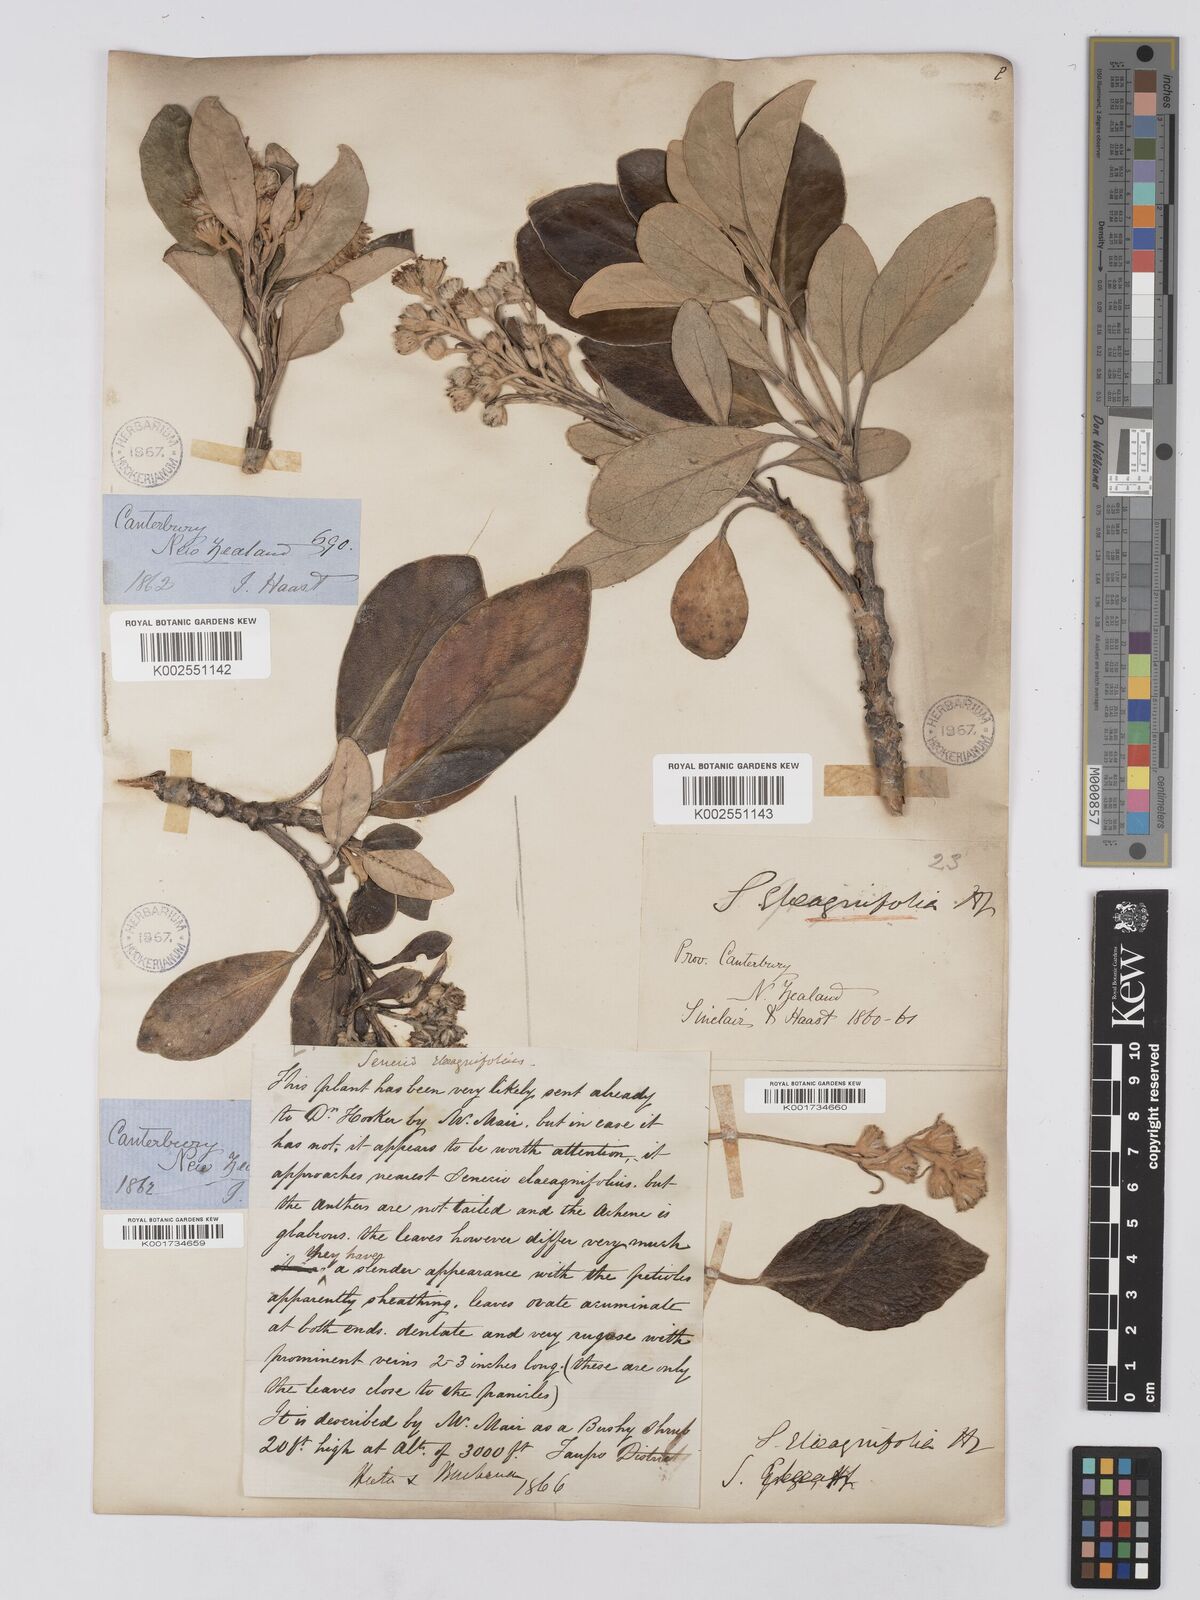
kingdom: Plantae
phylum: Tracheophyta
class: Magnoliopsida
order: Asterales
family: Asteraceae
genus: Brachyglottis
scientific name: Brachyglottis buchananii
